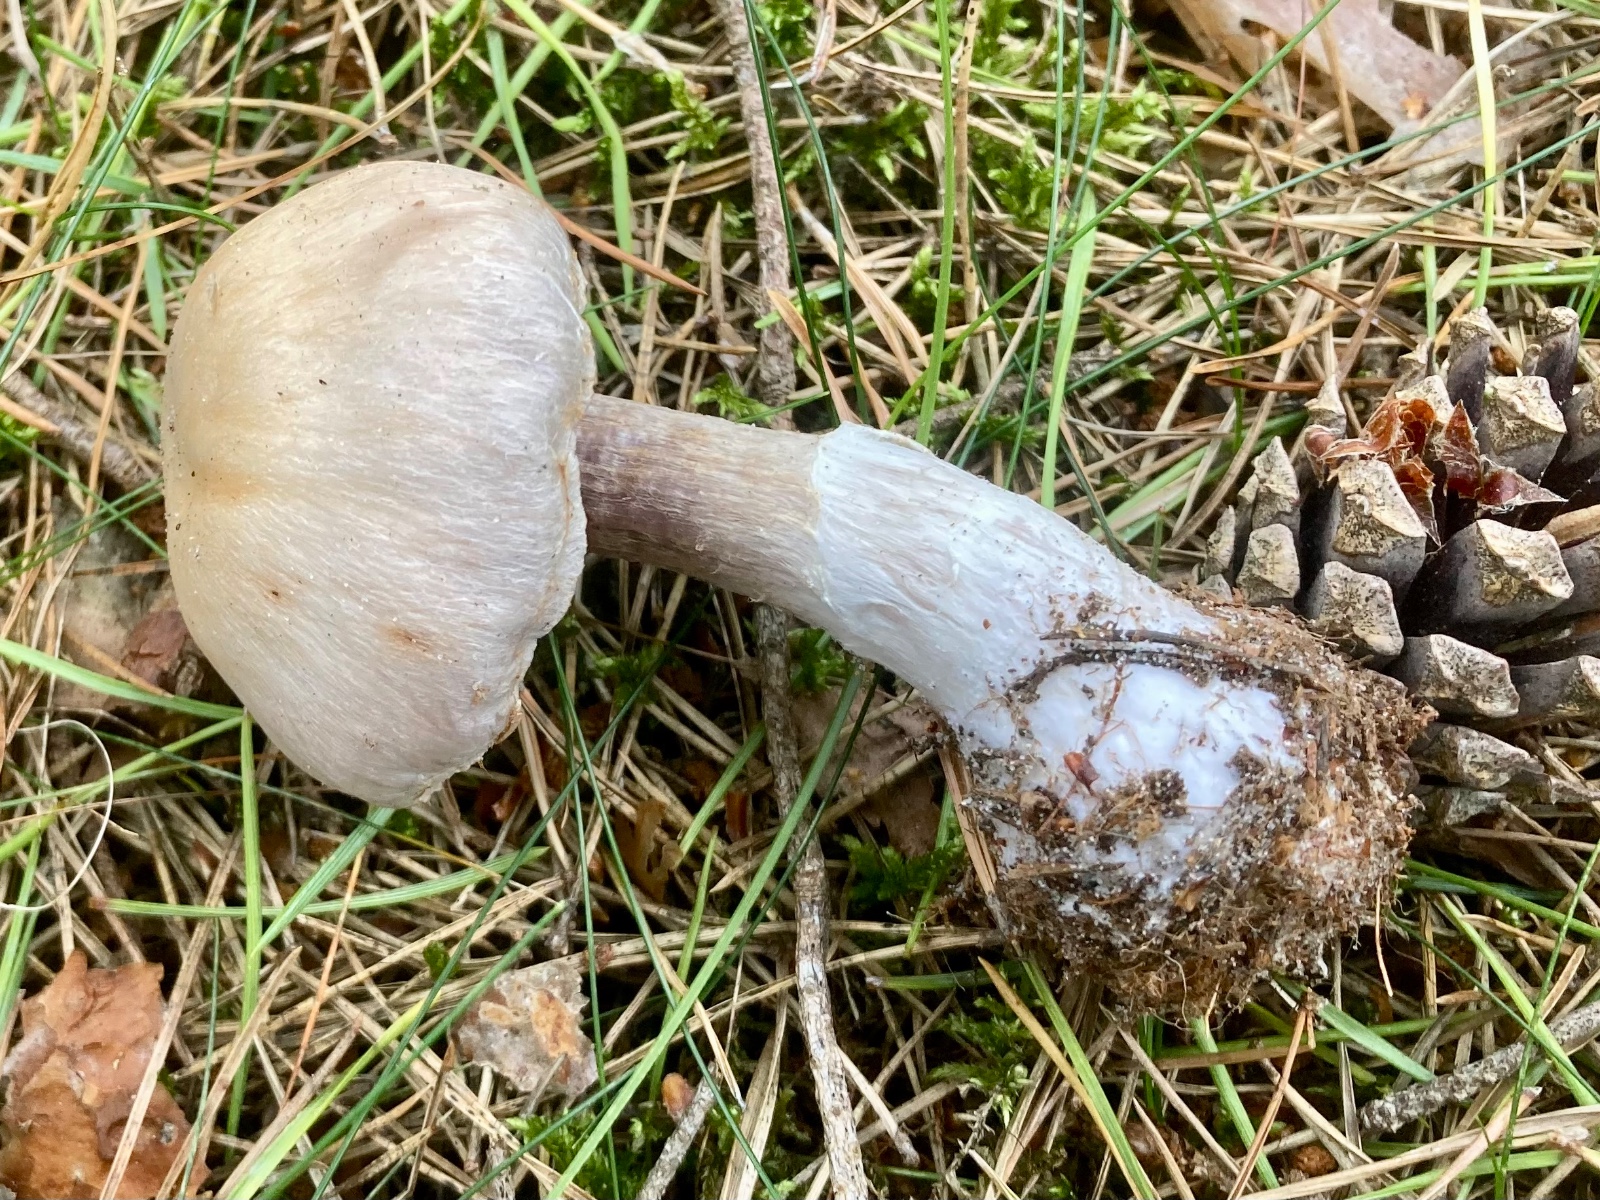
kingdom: Fungi
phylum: Basidiomycota
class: Agaricomycetes
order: Agaricales
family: Cortinariaceae
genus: Cortinarius
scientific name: Cortinarius quarciticus
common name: kvarts-slørhat
